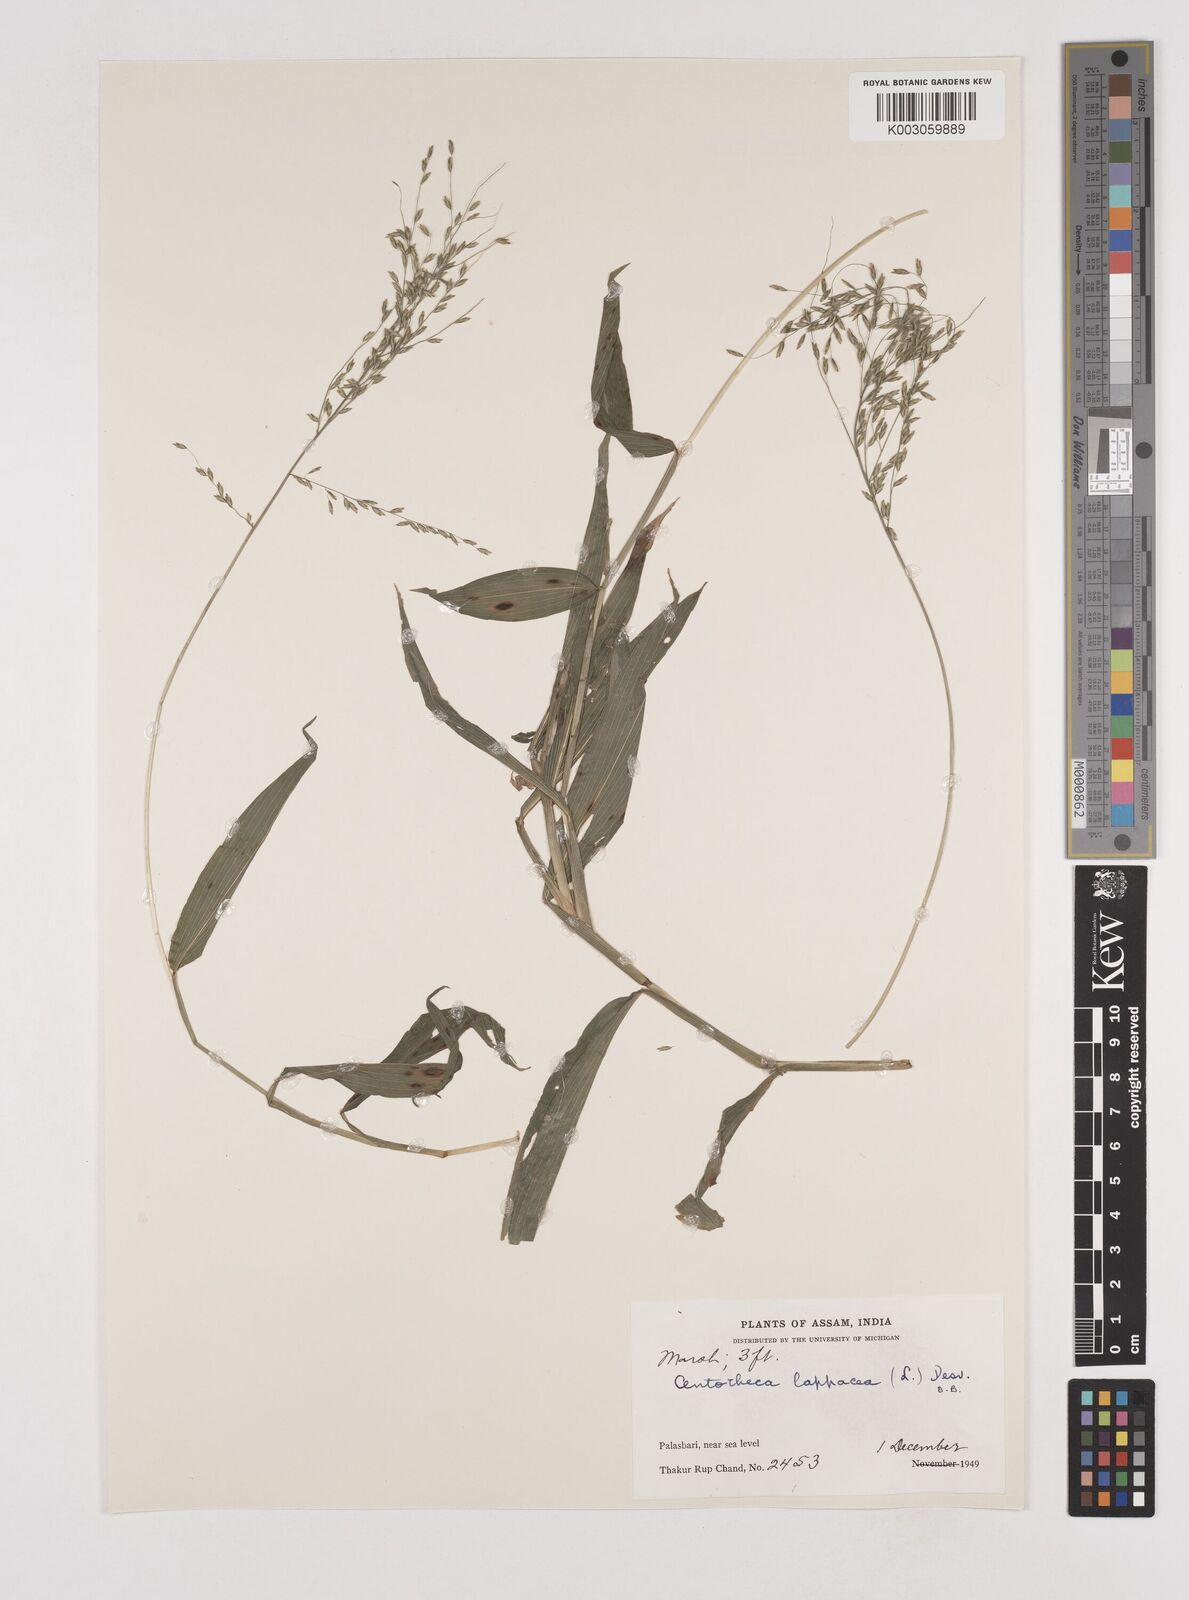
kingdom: Plantae
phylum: Tracheophyta
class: Liliopsida
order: Poales
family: Poaceae
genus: Centotheca
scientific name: Centotheca lappacea
